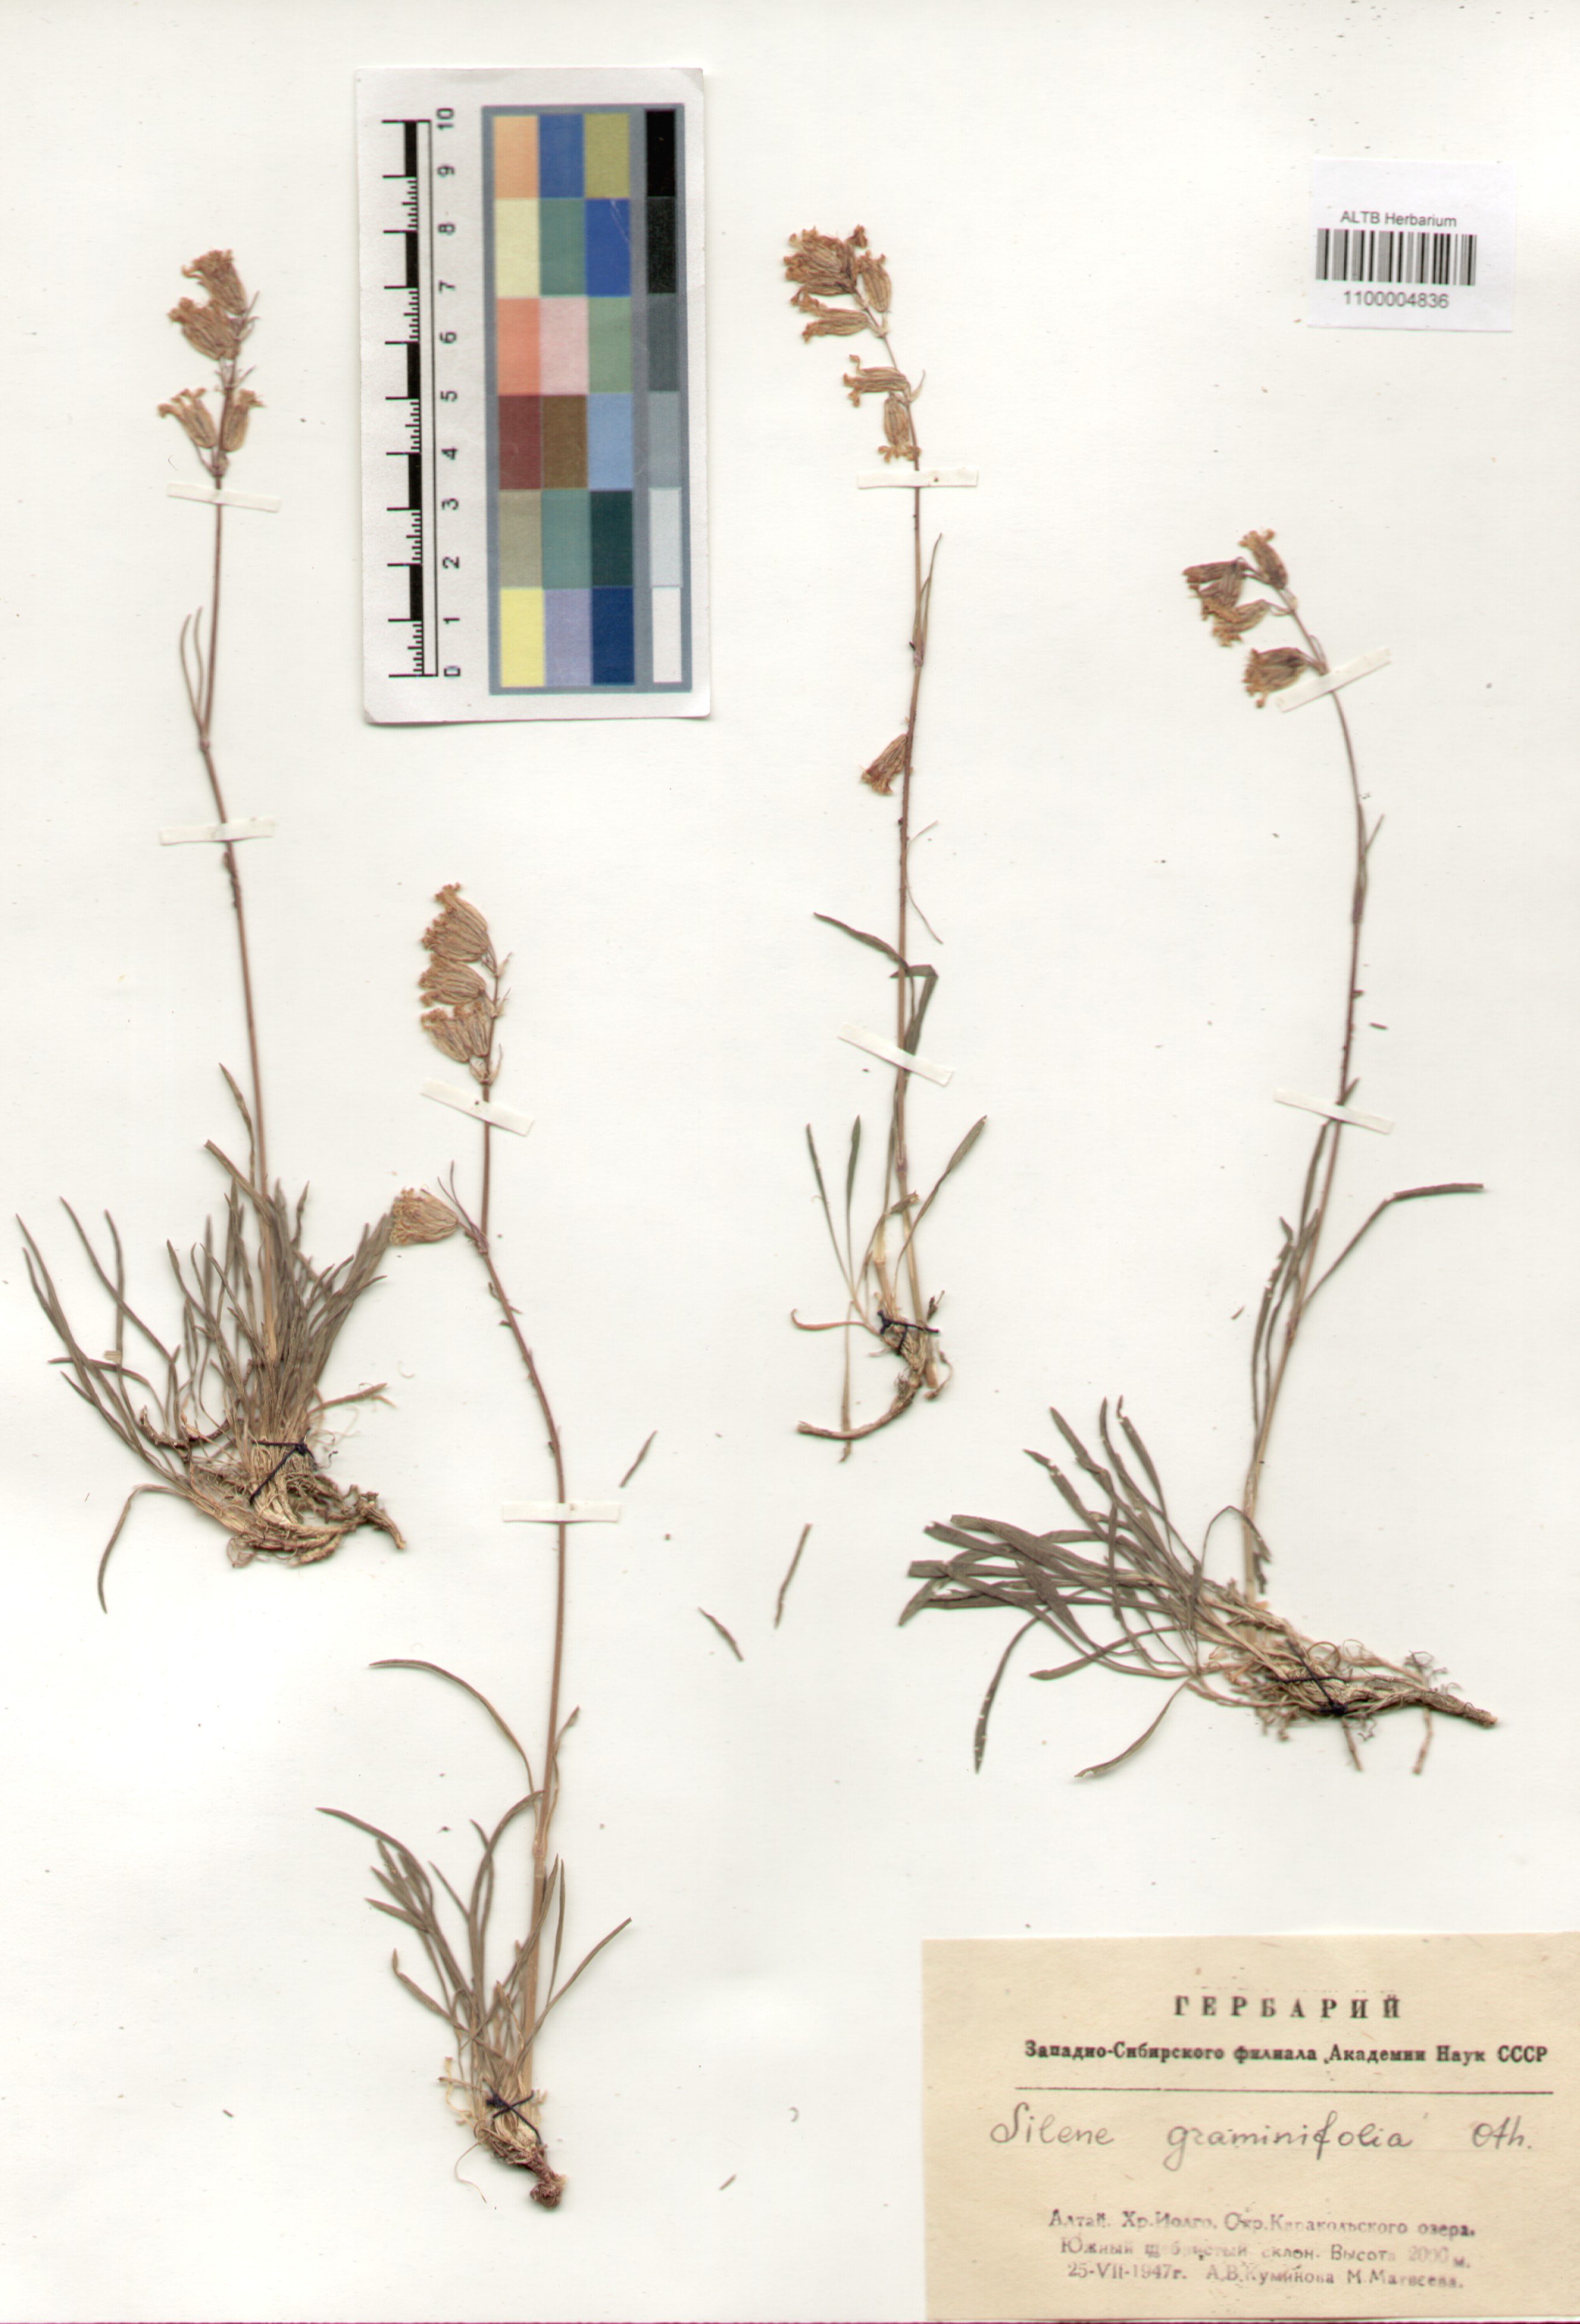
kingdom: Plantae
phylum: Tracheophyta
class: Magnoliopsida
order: Caryophyllales
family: Caryophyllaceae
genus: Silene
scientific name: Silene graminifolia
